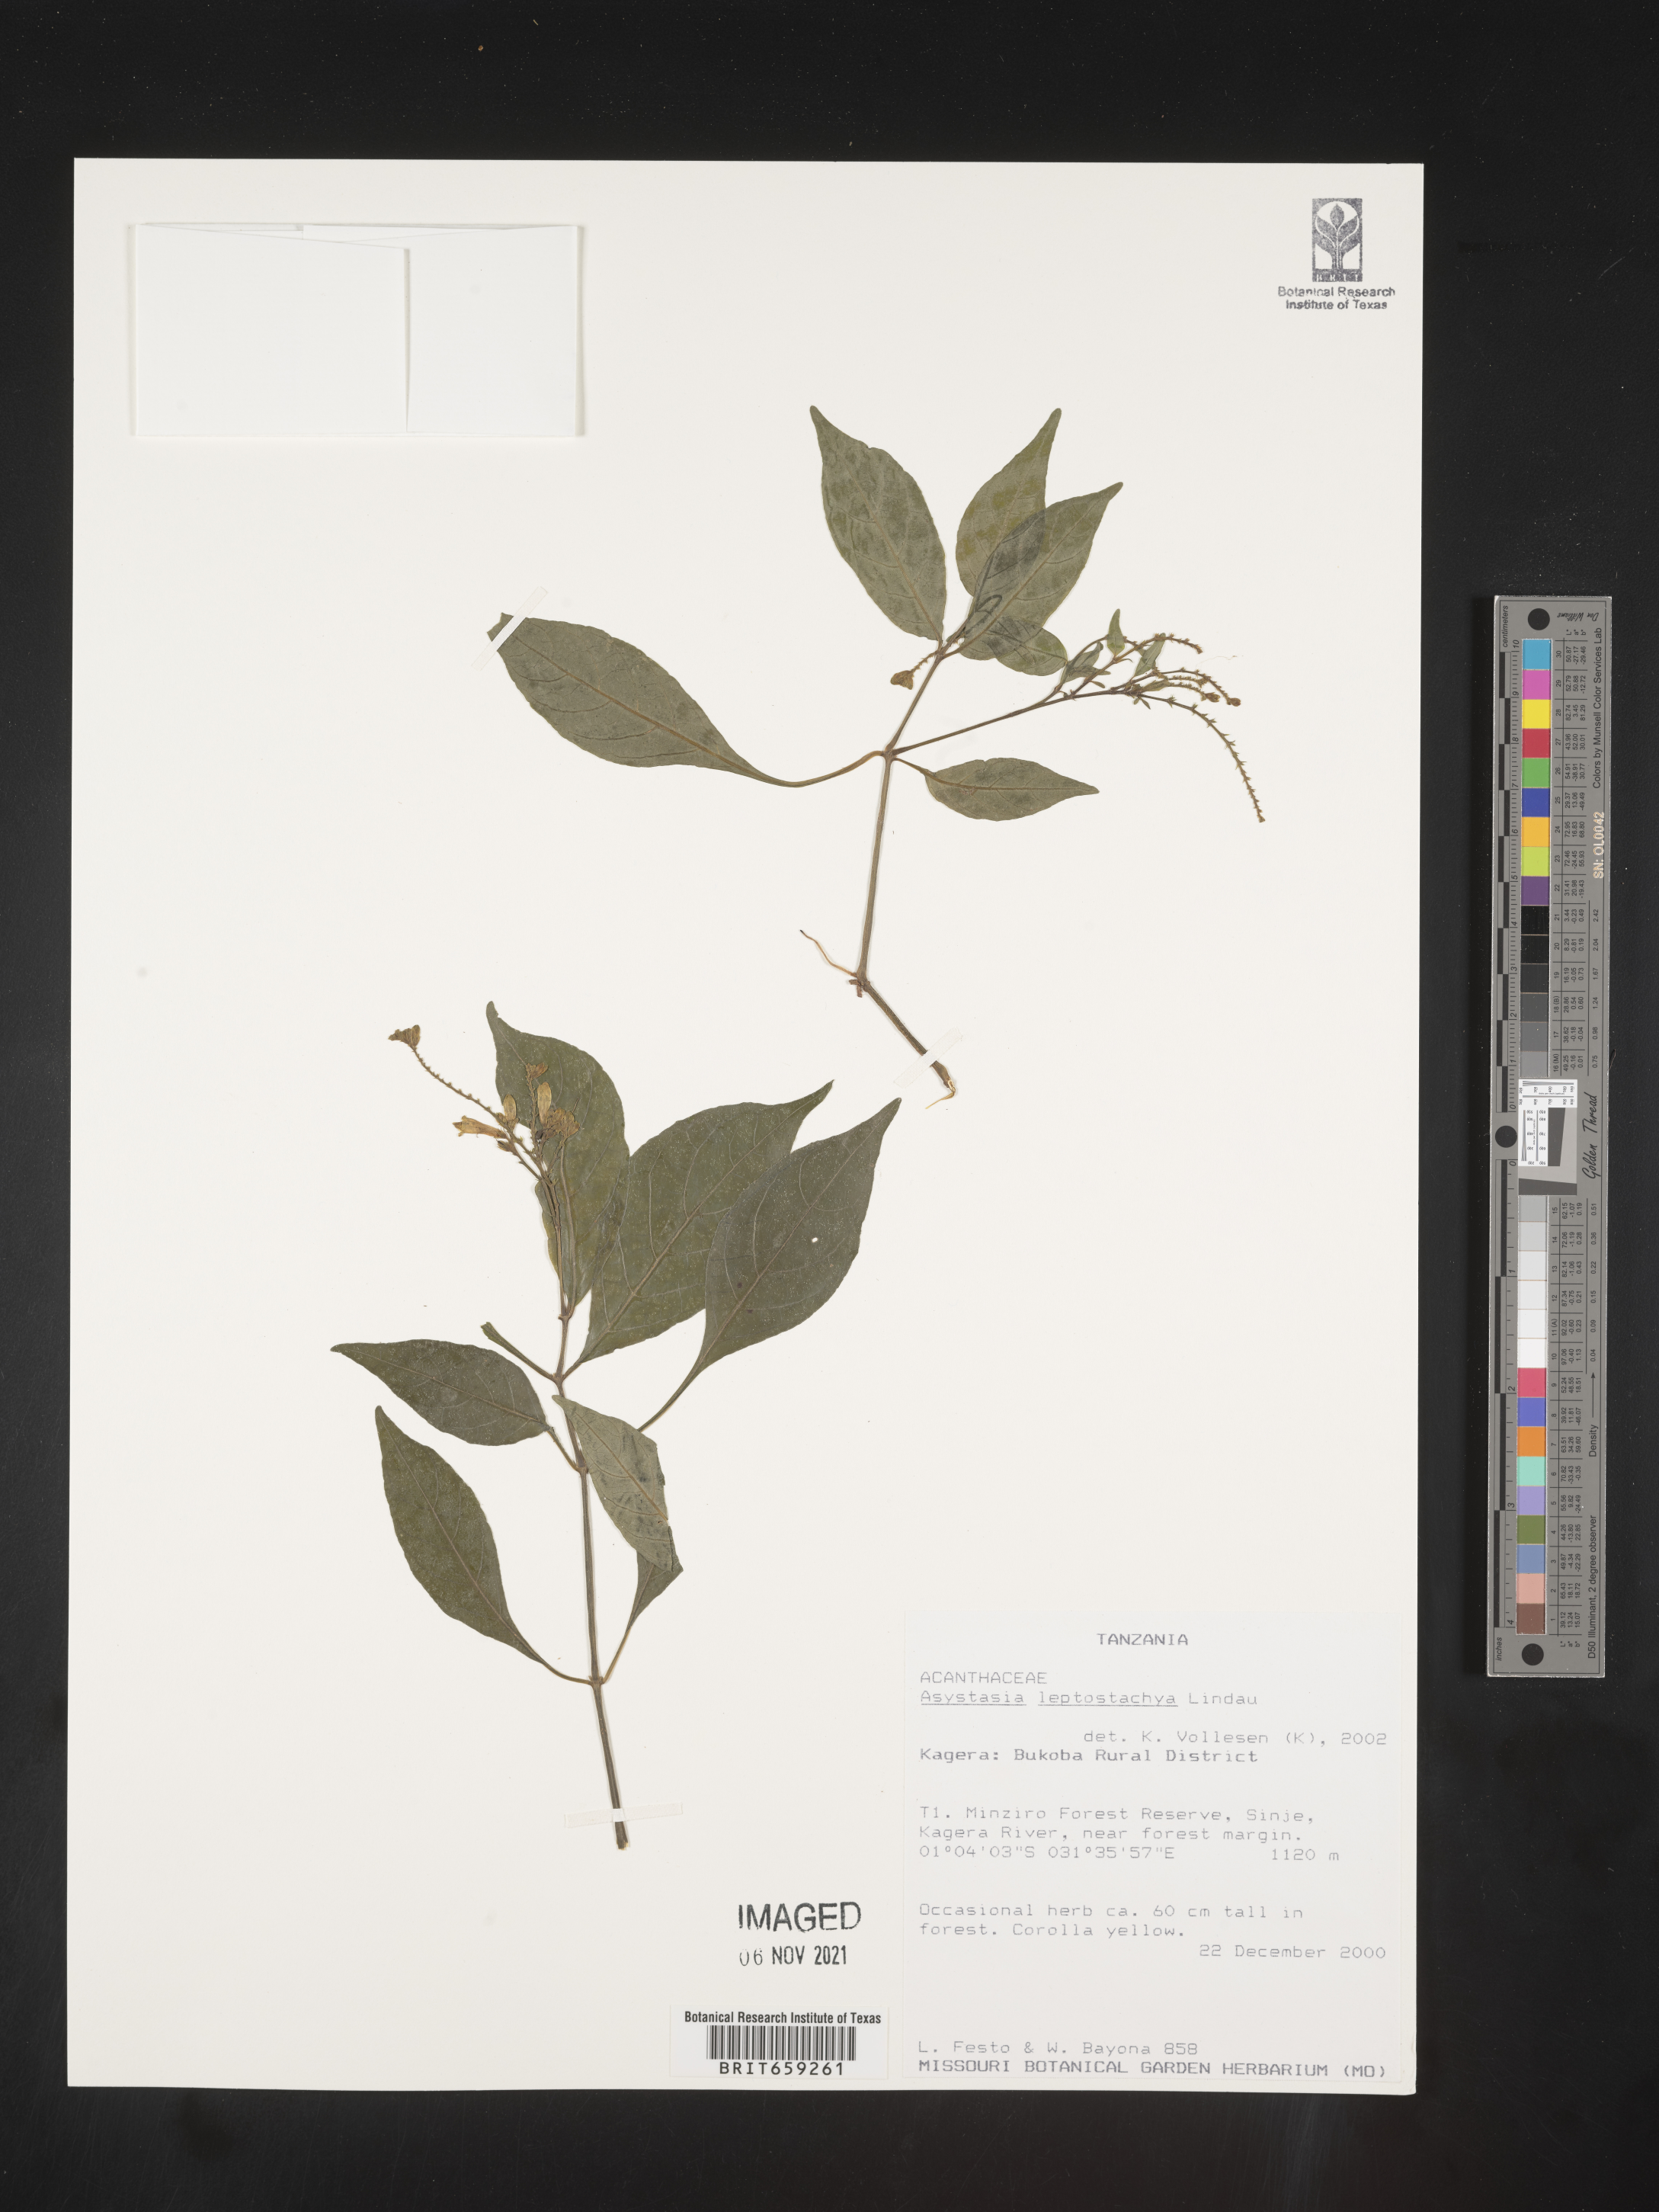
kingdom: Plantae
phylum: Tracheophyta
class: Magnoliopsida
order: Lamiales
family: Acanthaceae
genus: Asystasia
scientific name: Asystasia leptostachya
